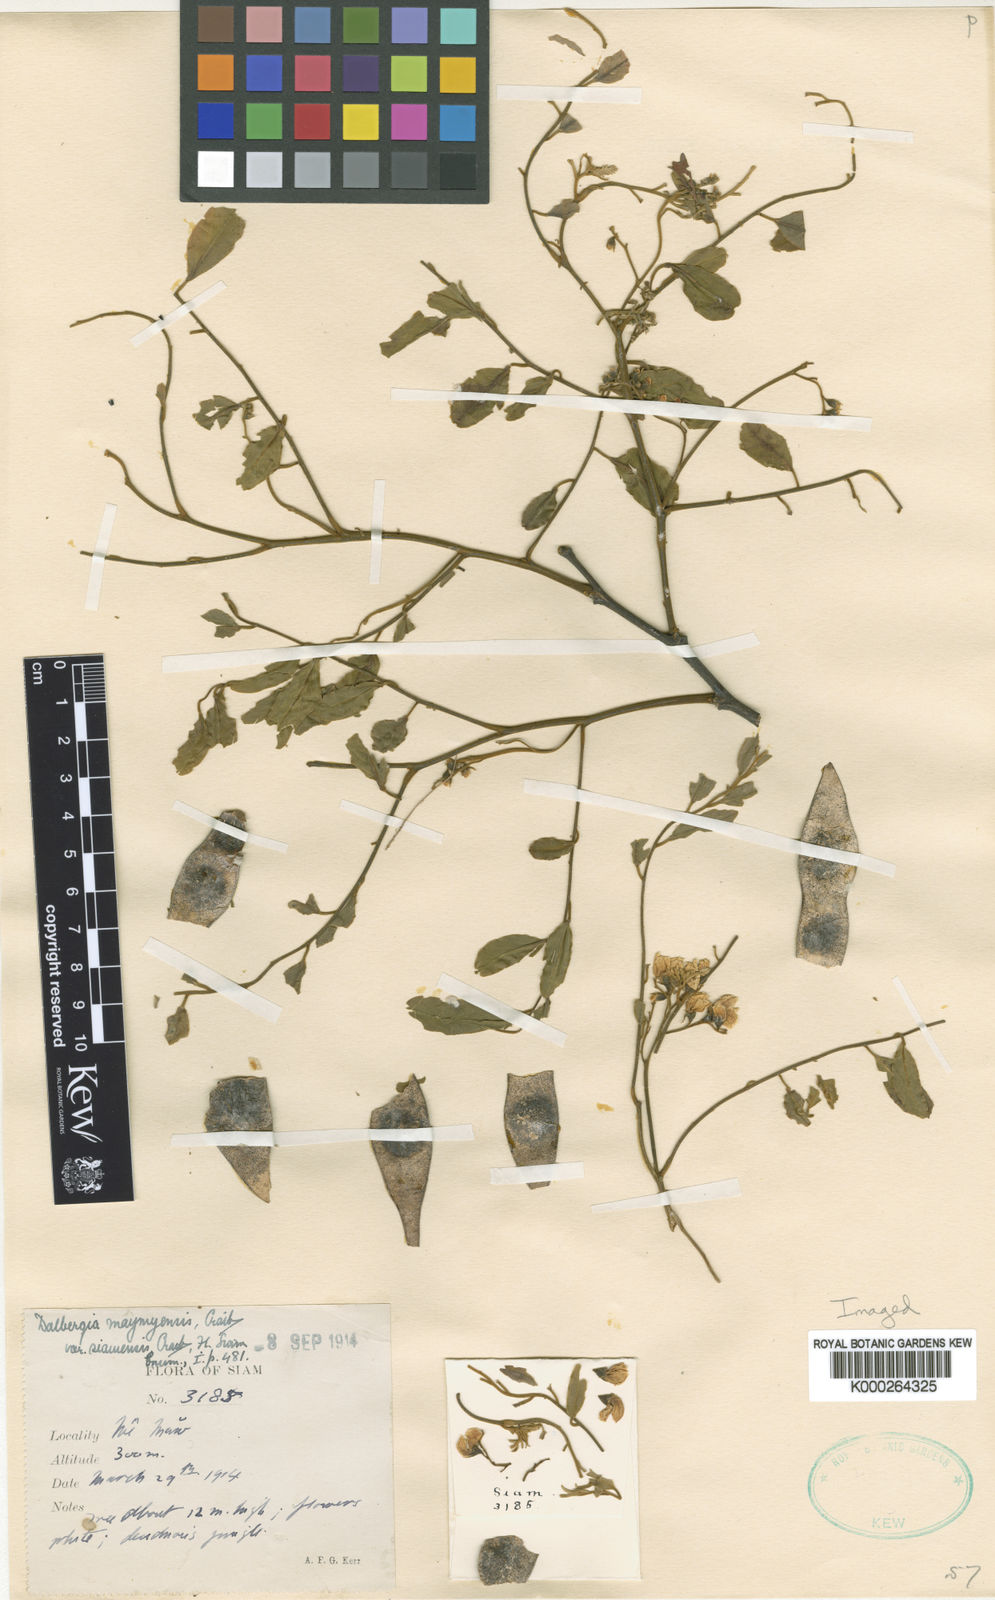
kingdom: Plantae
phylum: Tracheophyta
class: Magnoliopsida
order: Fabales
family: Fabaceae
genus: Dalbergia
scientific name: Dalbergia lanceolaria
